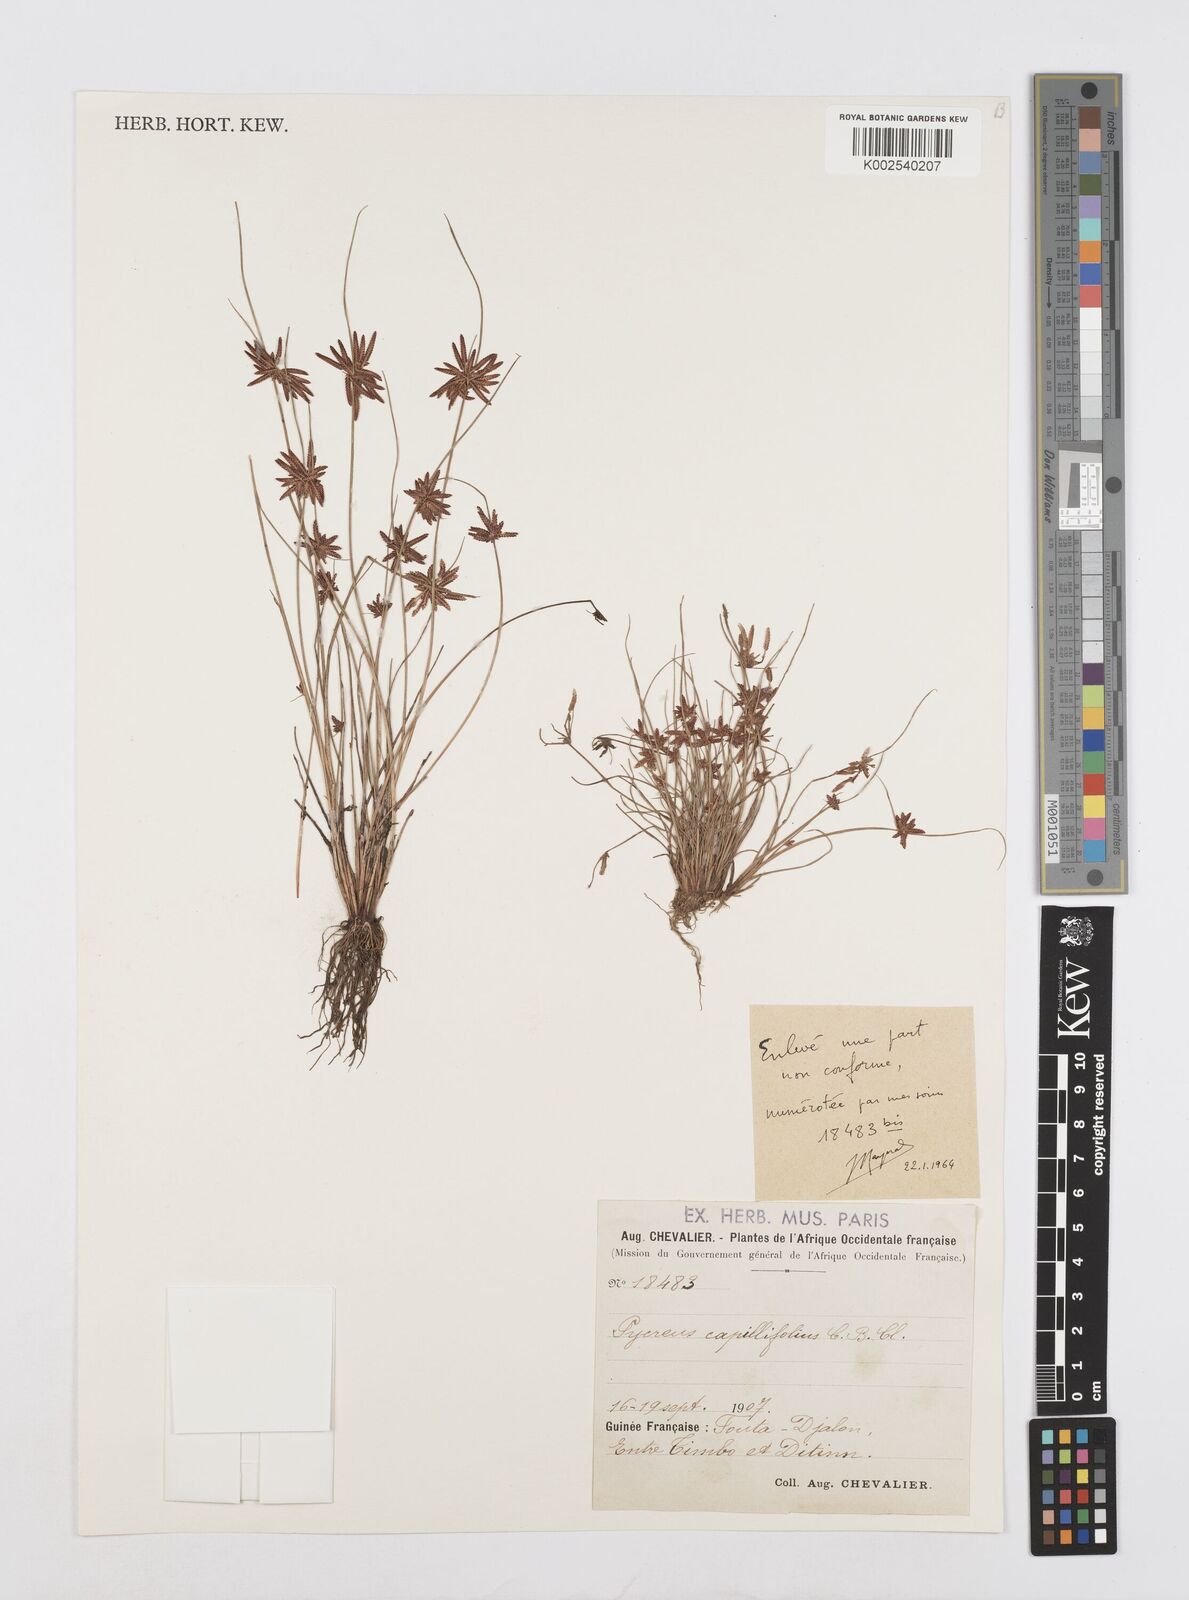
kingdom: Plantae
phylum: Tracheophyta
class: Liliopsida
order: Poales
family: Cyperaceae
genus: Cyperus
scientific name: Cyperus capillifolius
